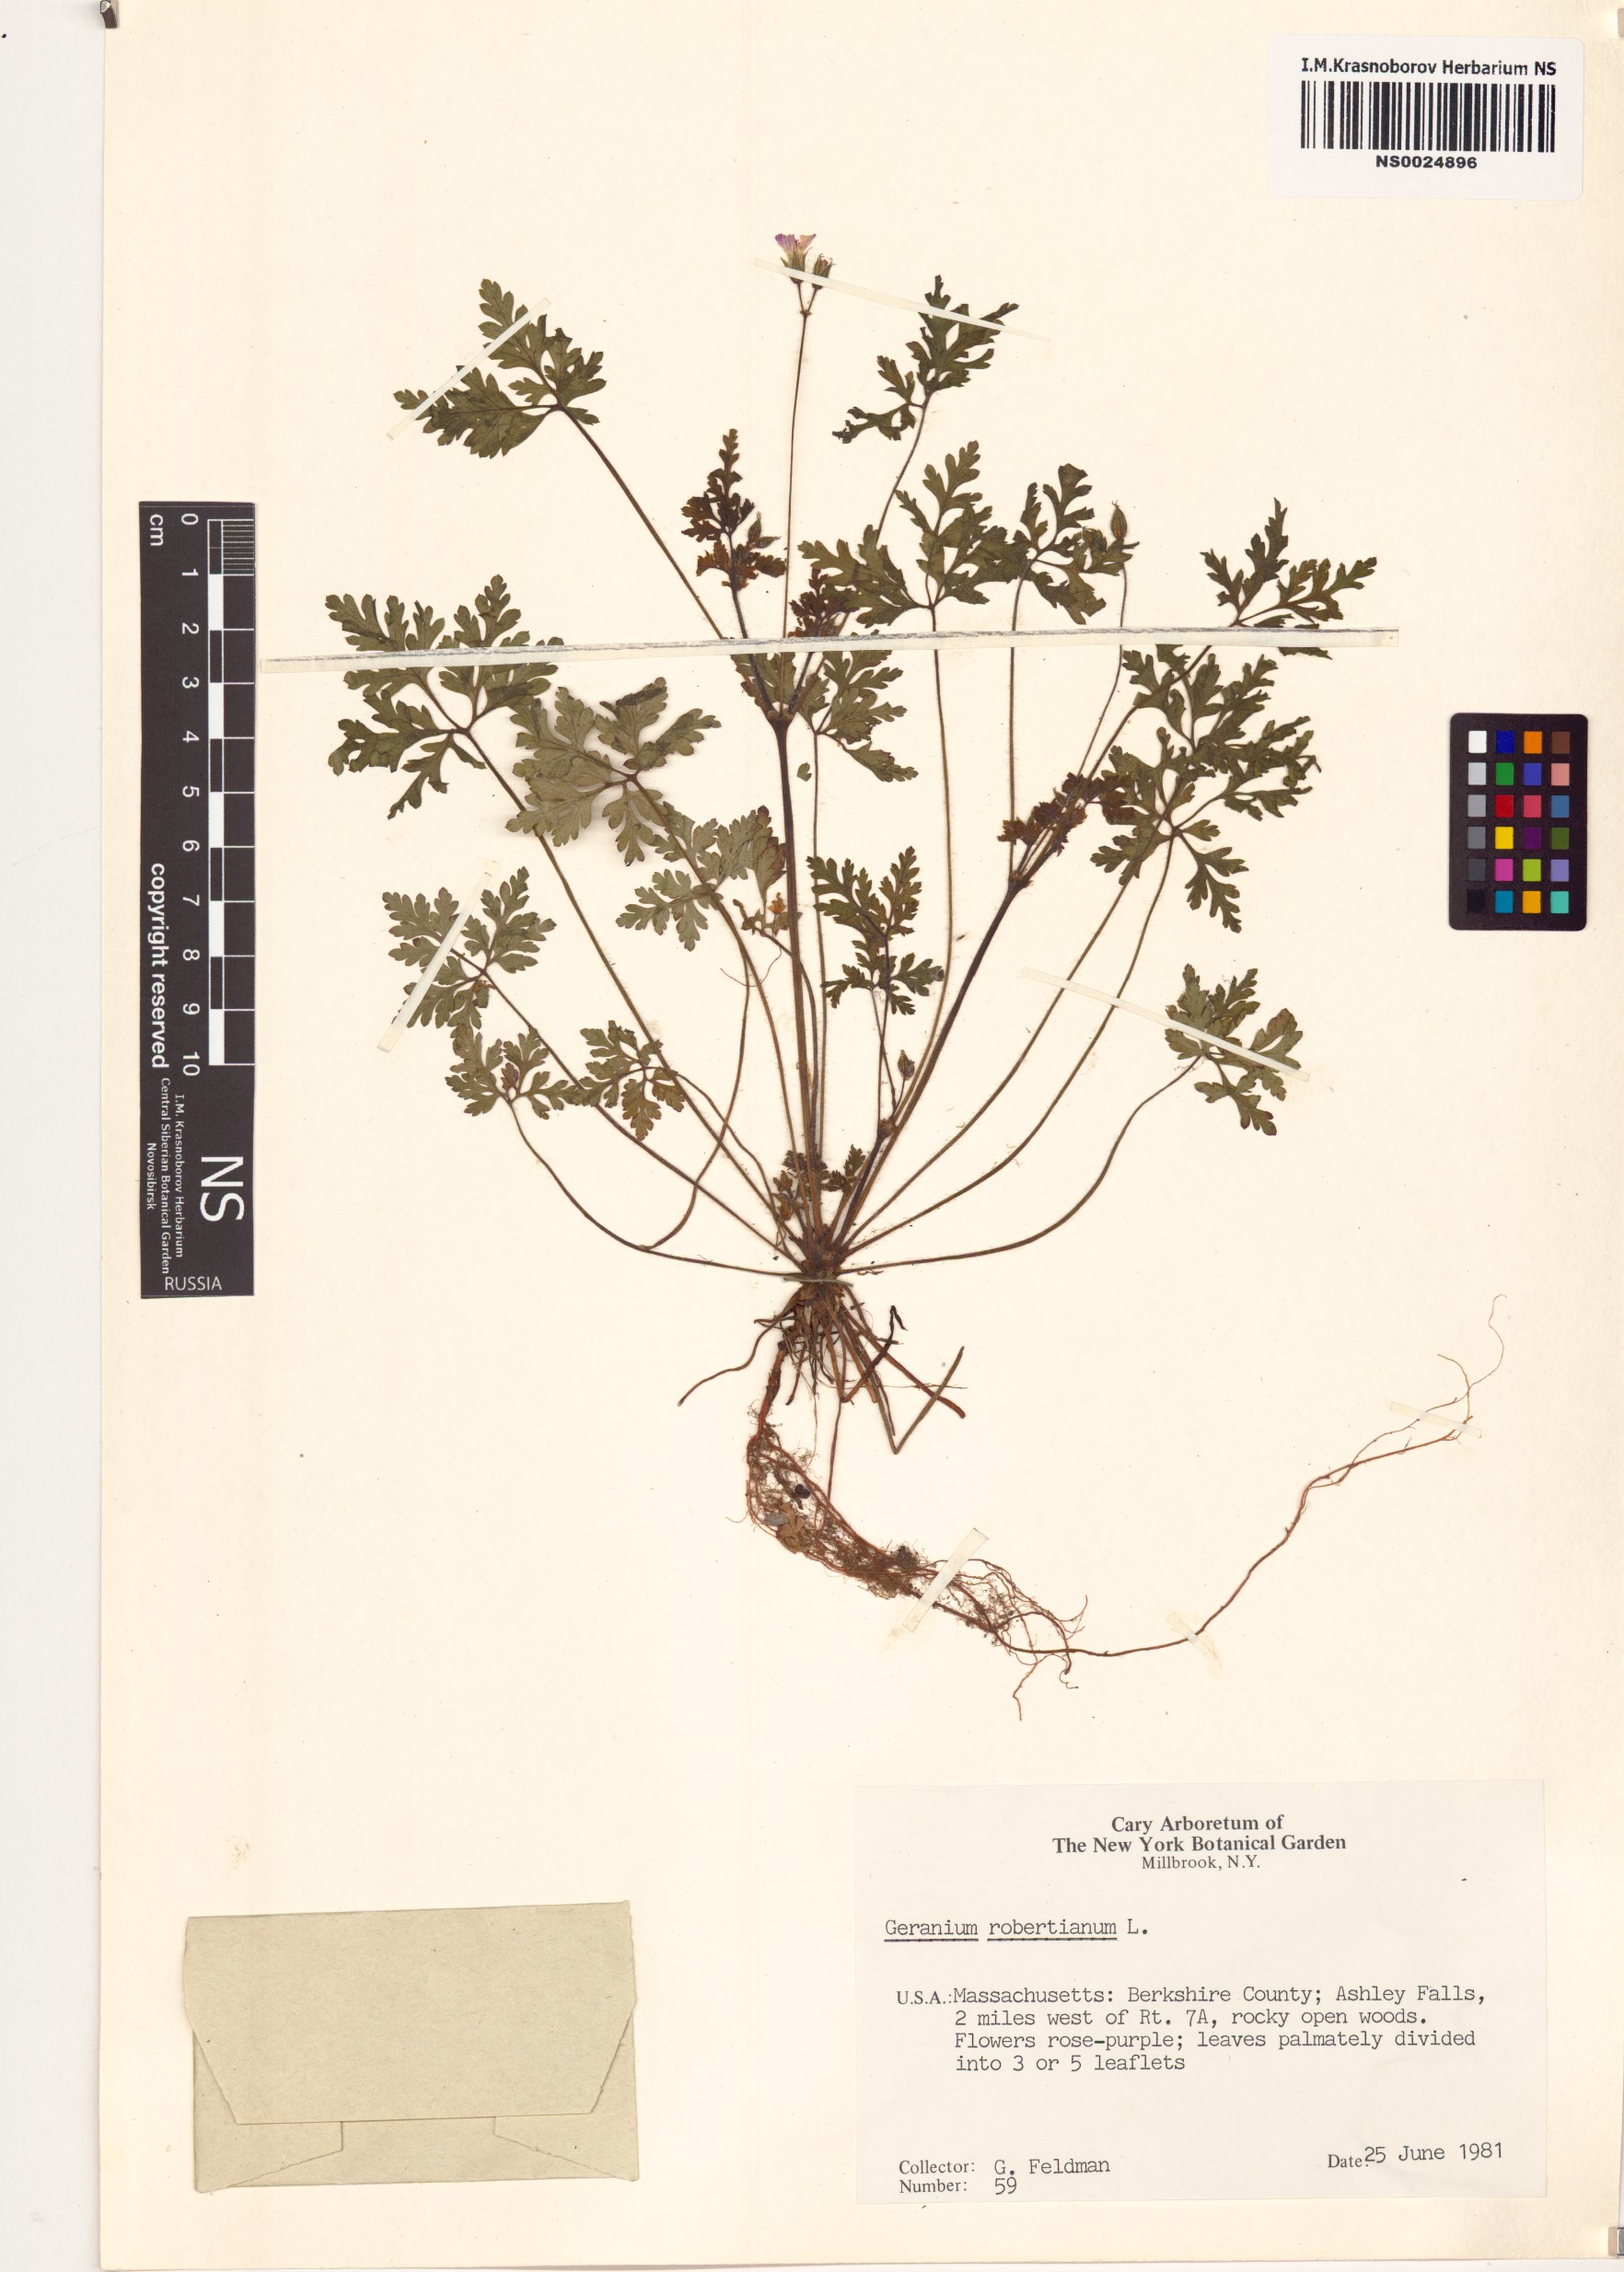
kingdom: Plantae
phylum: Tracheophyta
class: Magnoliopsida
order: Geraniales
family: Geraniaceae
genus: Geranium
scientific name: Geranium robertianum
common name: Herb-robert
